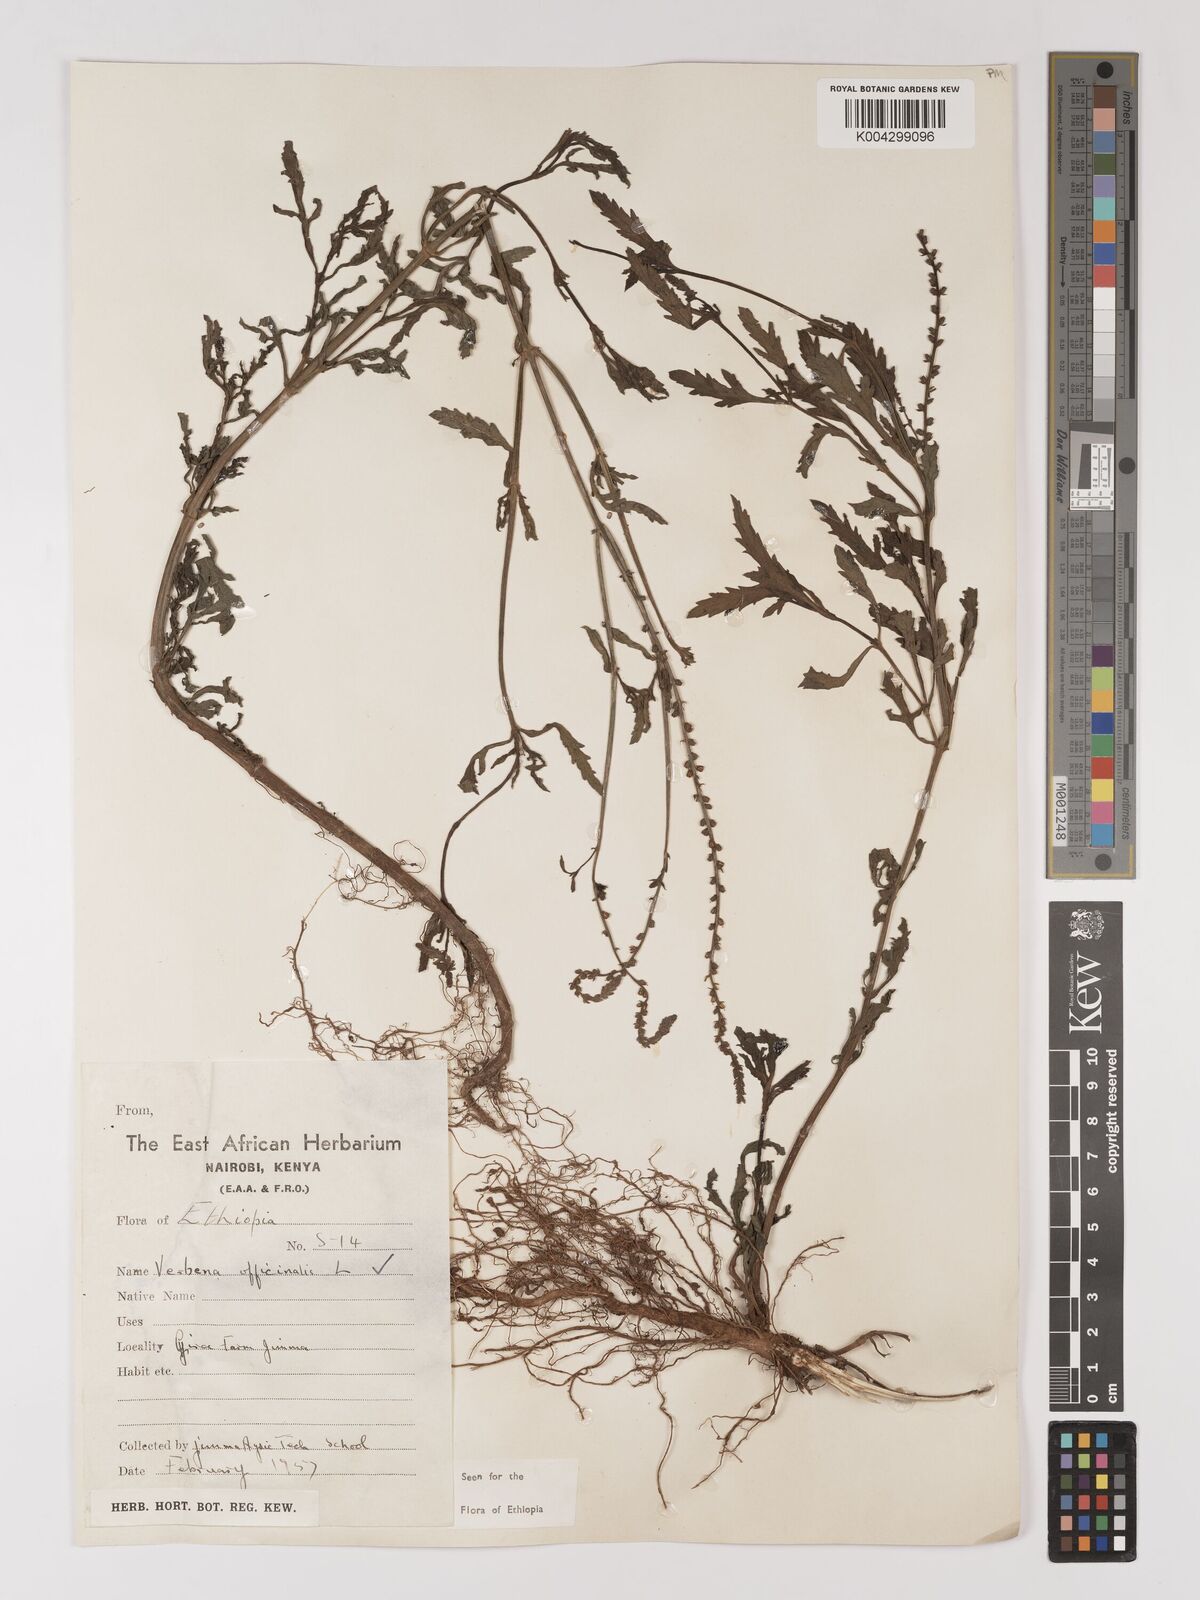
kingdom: Plantae
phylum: Tracheophyta
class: Magnoliopsida
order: Lamiales
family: Verbenaceae
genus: Verbena
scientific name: Verbena officinalis
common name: Vervain
